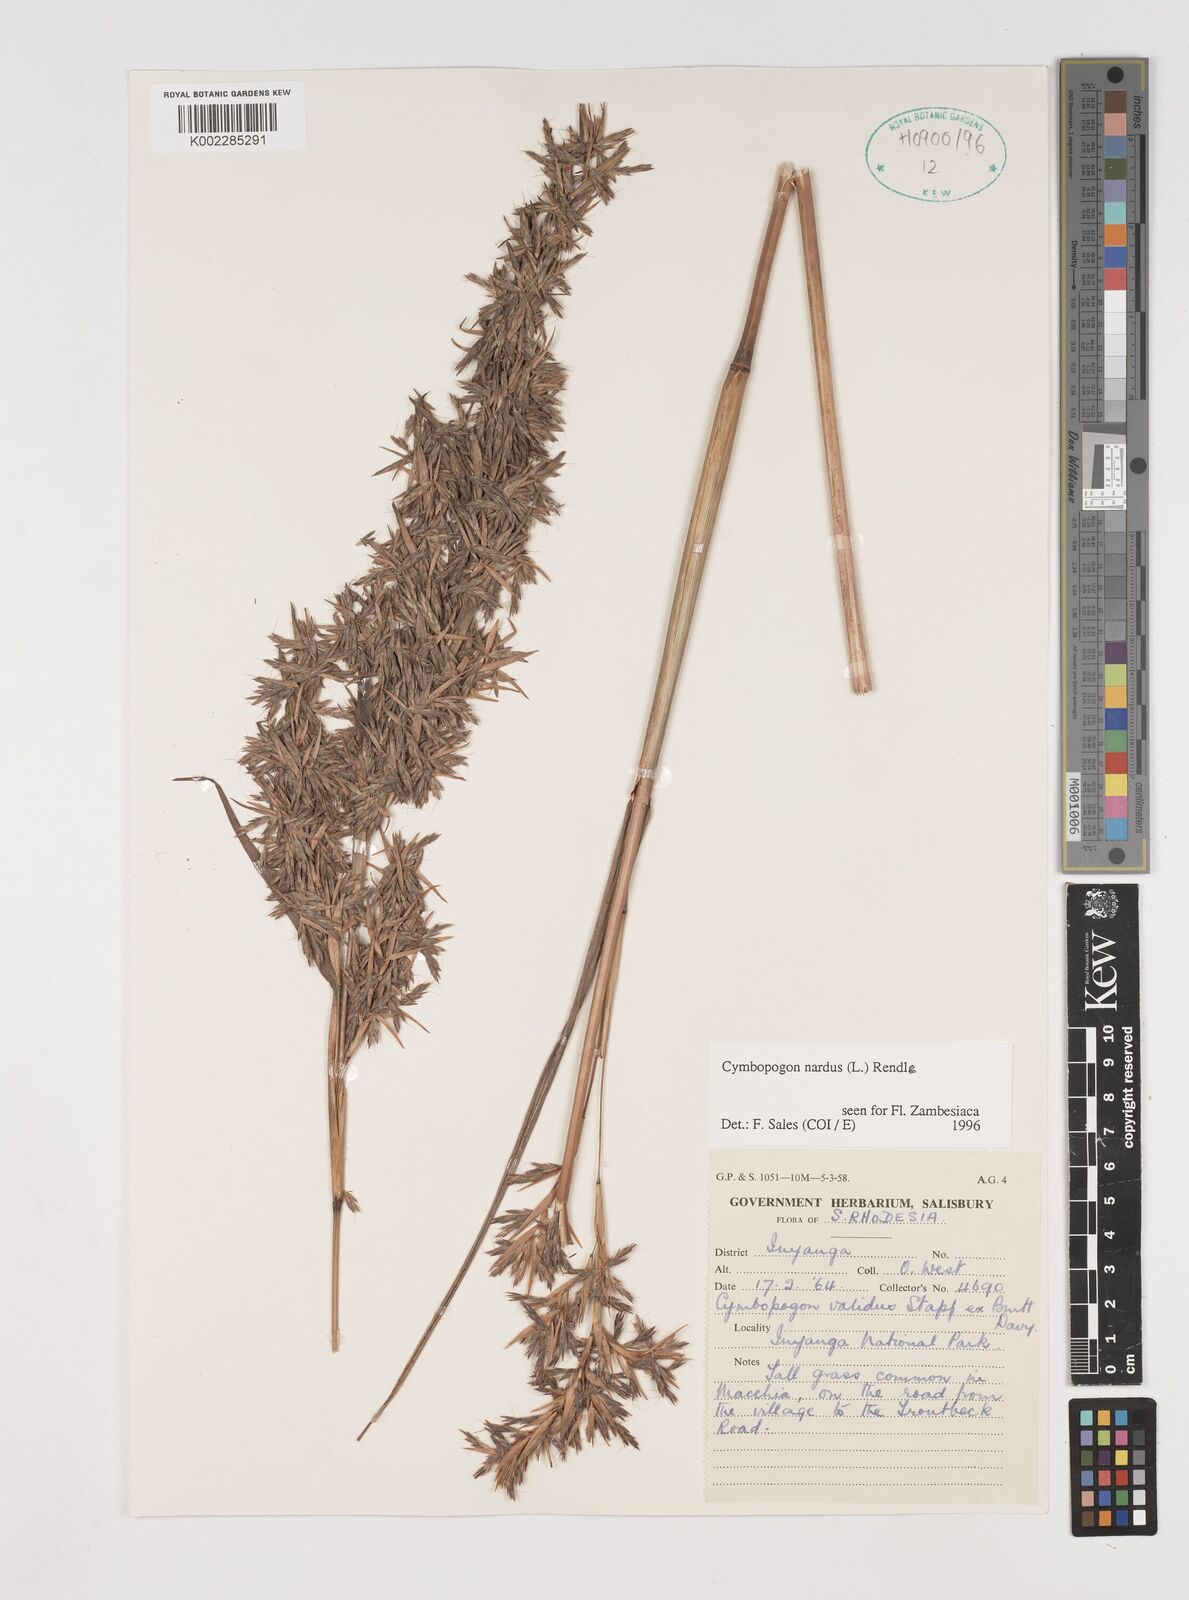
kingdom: Plantae
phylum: Tracheophyta
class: Liliopsida
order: Poales
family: Poaceae
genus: Cymbopogon
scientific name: Cymbopogon nardus
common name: Giant turpentine grass
